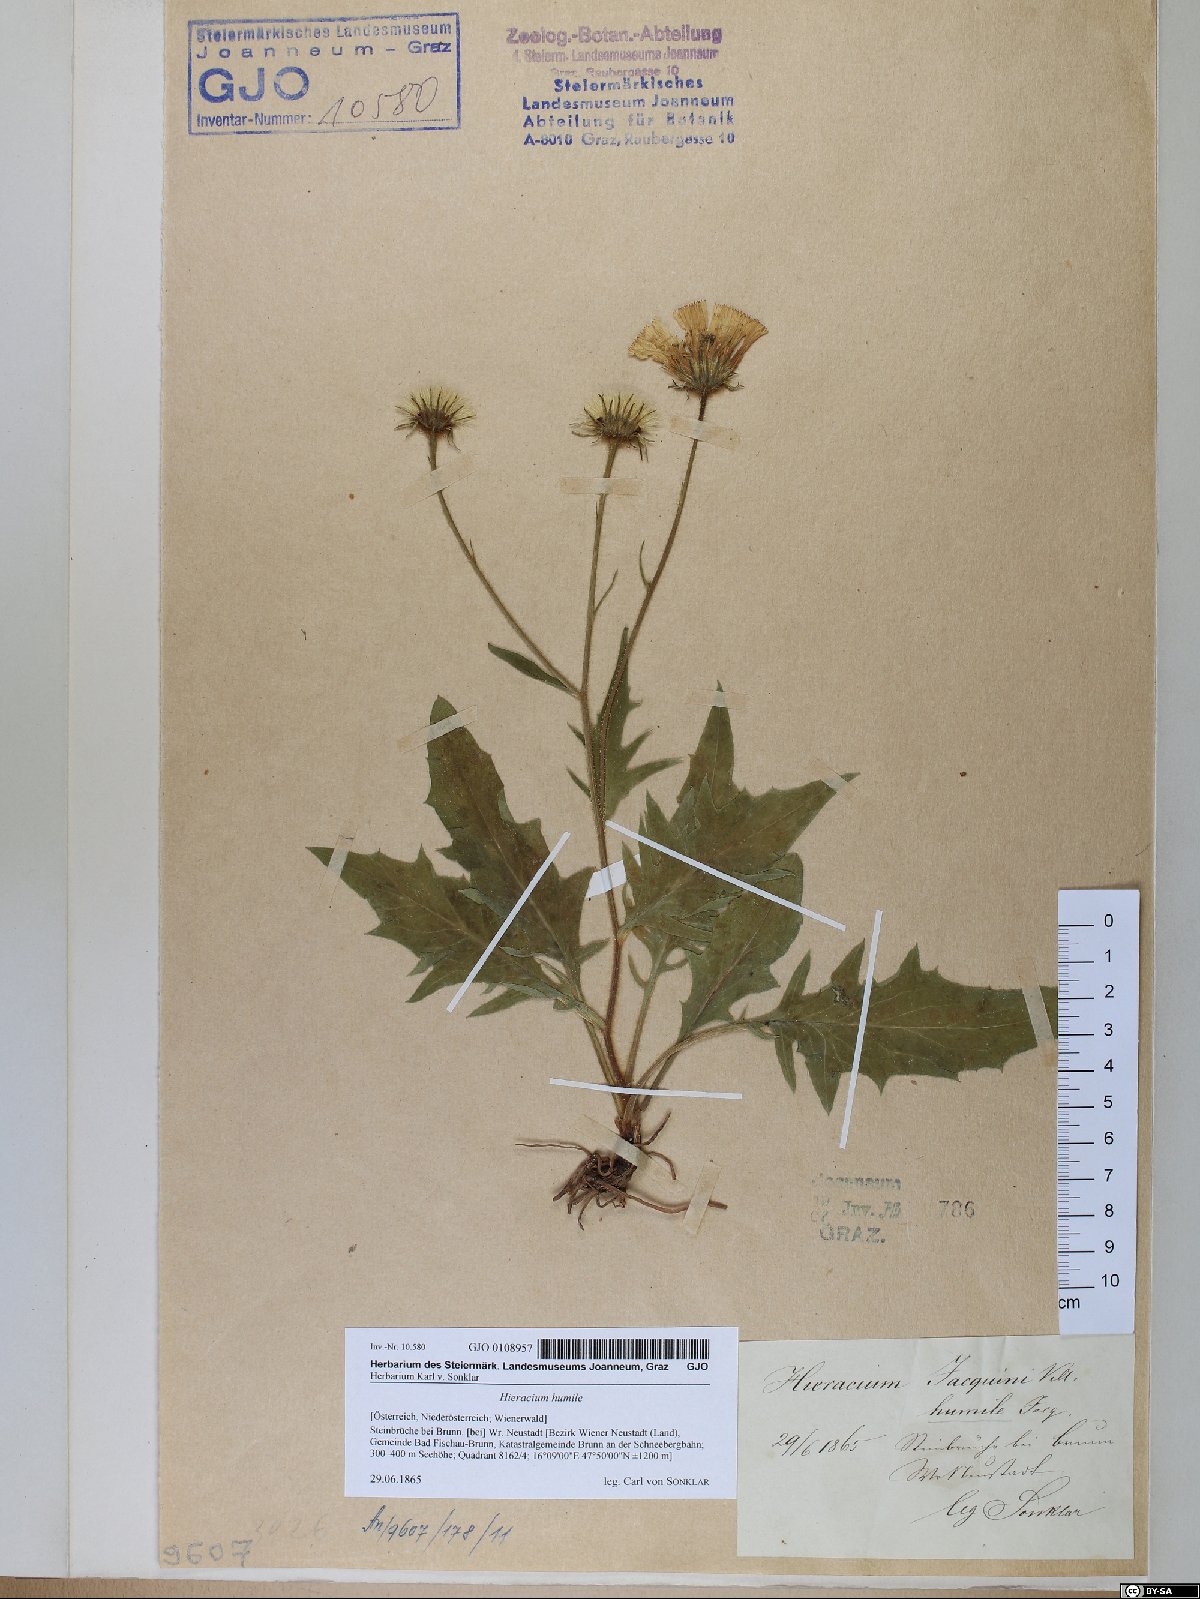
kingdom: Plantae
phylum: Tracheophyta
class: Magnoliopsida
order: Asterales
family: Asteraceae
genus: Hieracium
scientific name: Hieracium humile
